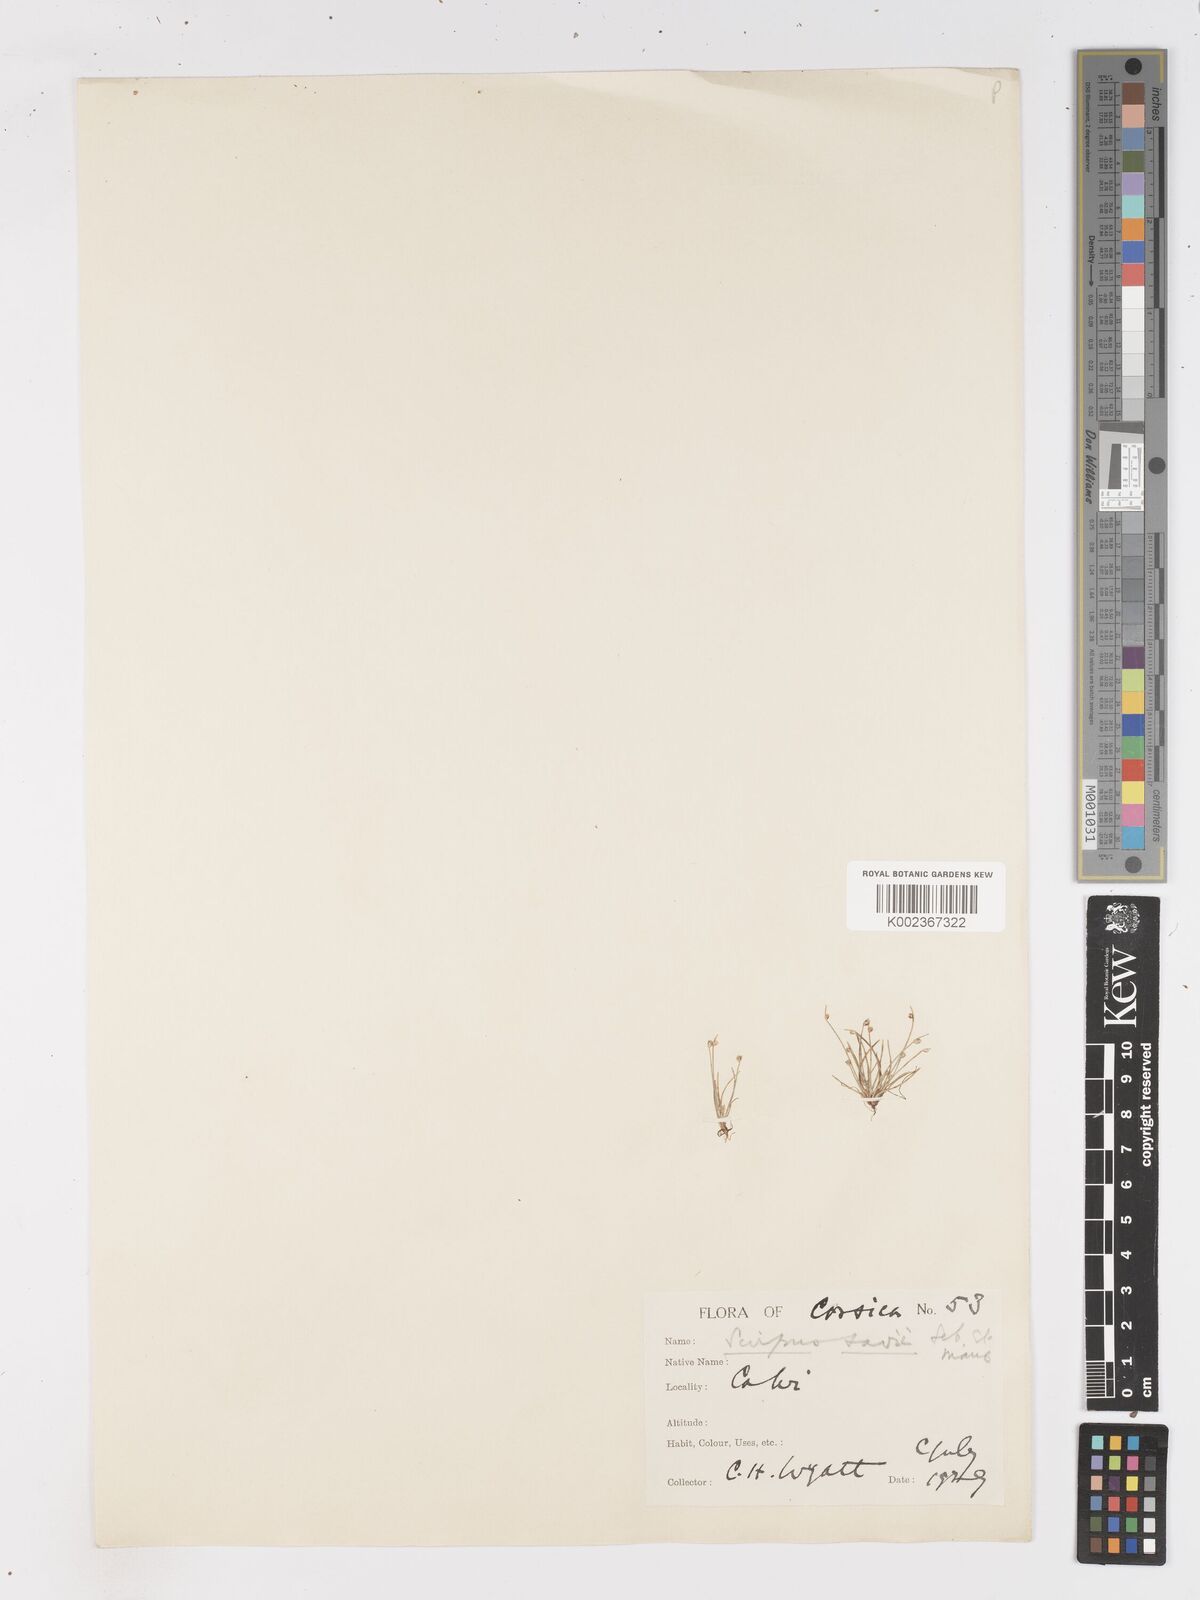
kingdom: Plantae
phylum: Tracheophyta
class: Liliopsida
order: Poales
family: Cyperaceae
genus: Isolepis
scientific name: Isolepis cernua
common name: Slender club-rush
